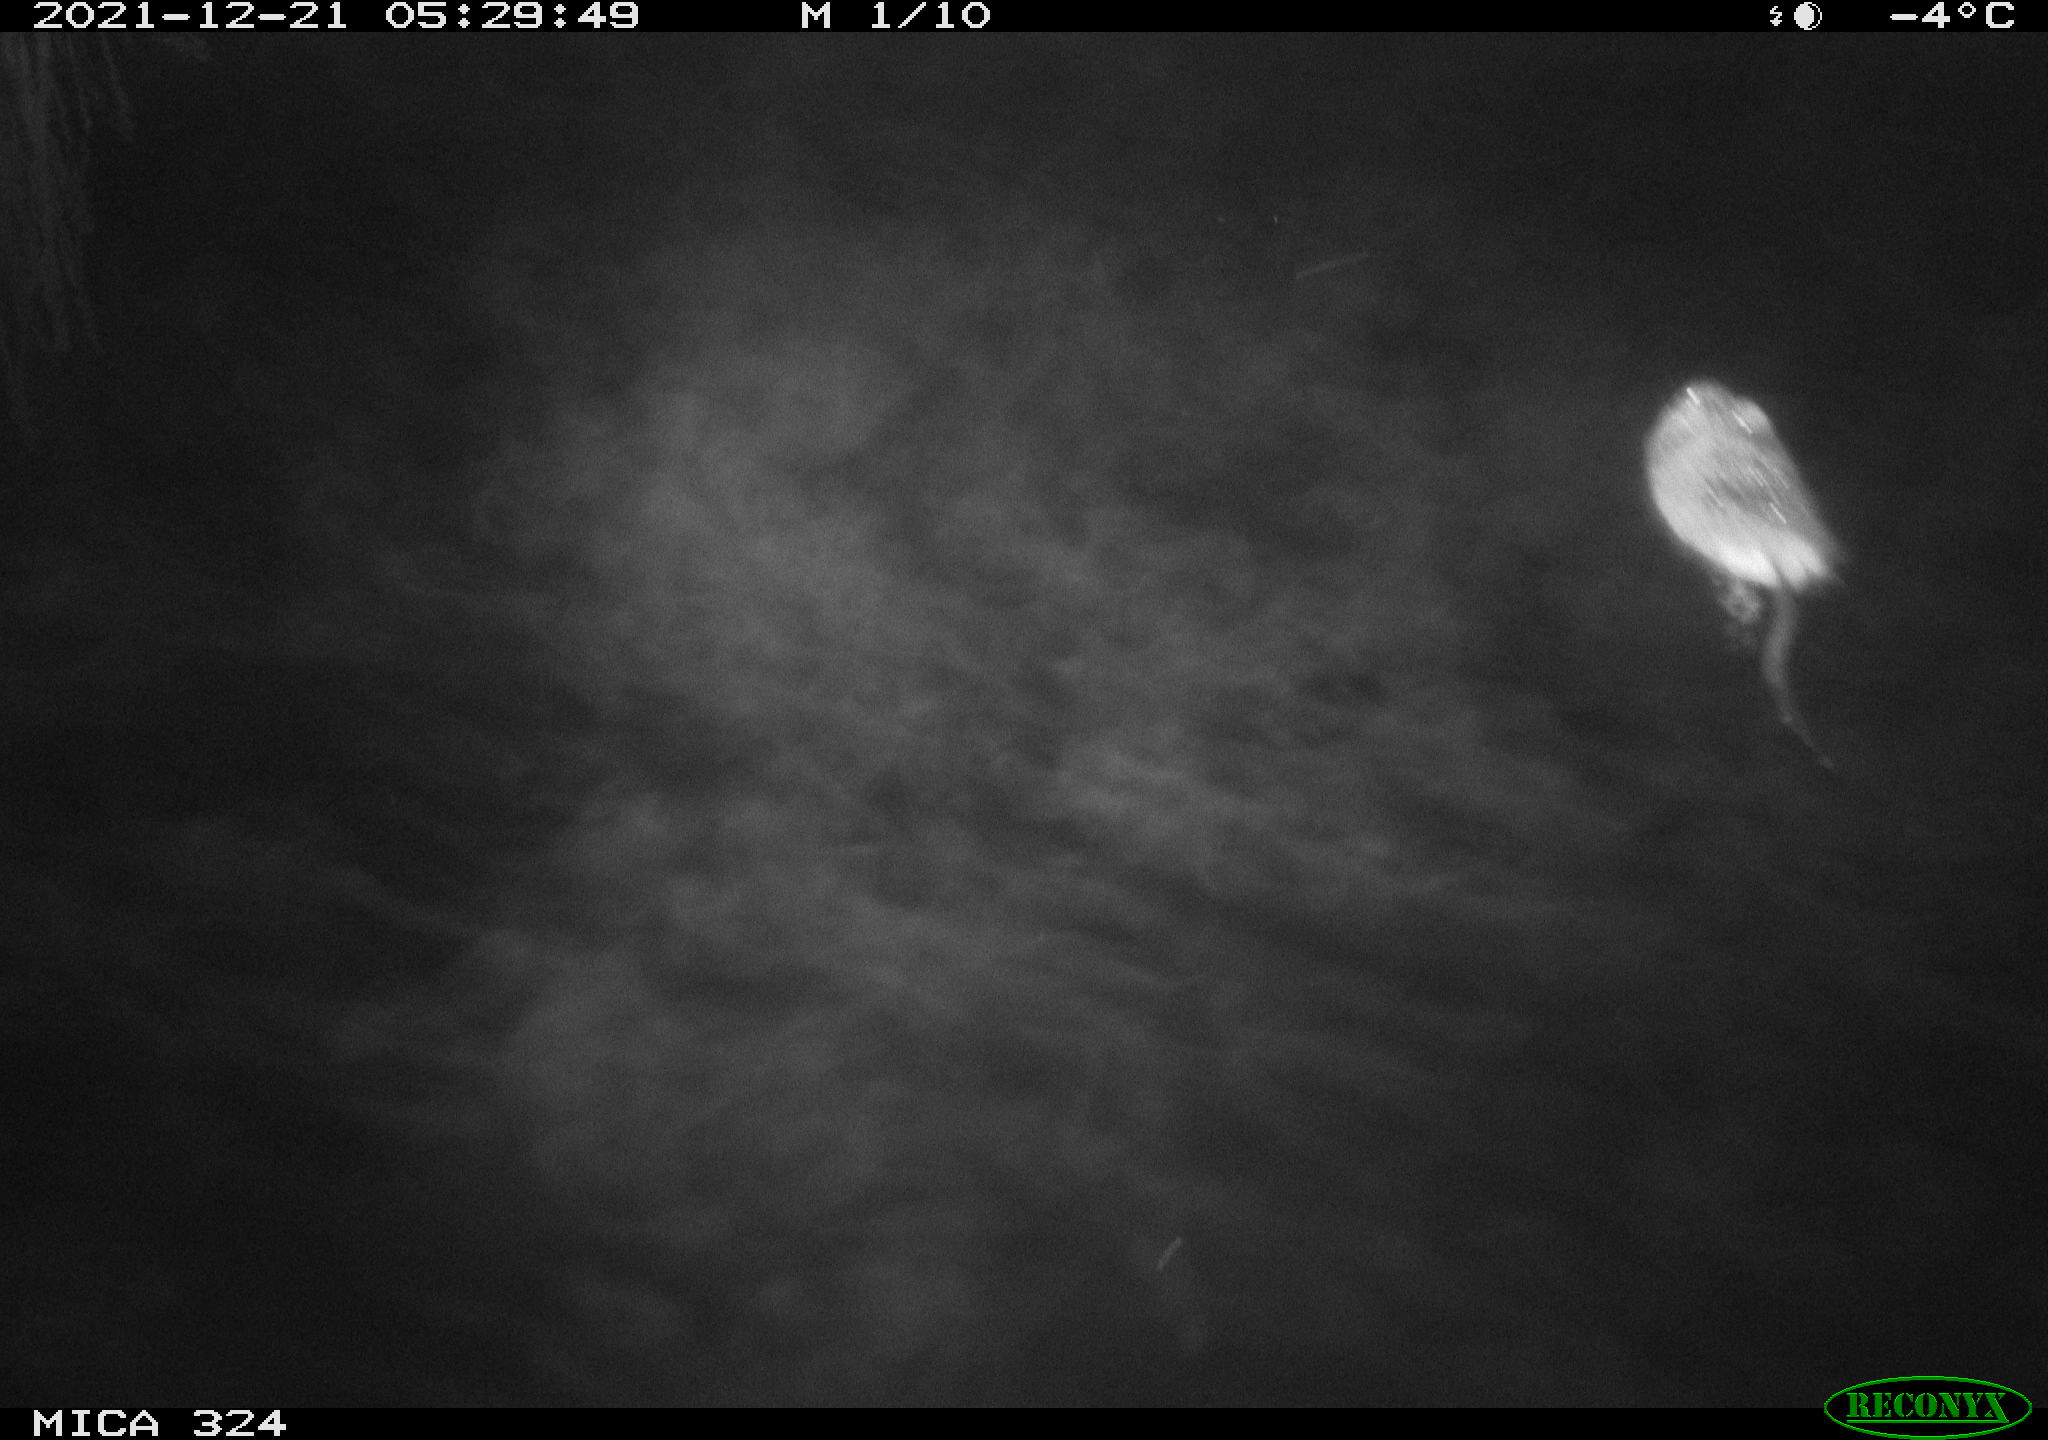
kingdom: Animalia
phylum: Chordata
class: Mammalia
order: Rodentia
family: Cricetidae
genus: Ondatra
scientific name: Ondatra zibethicus
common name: Muskrat
